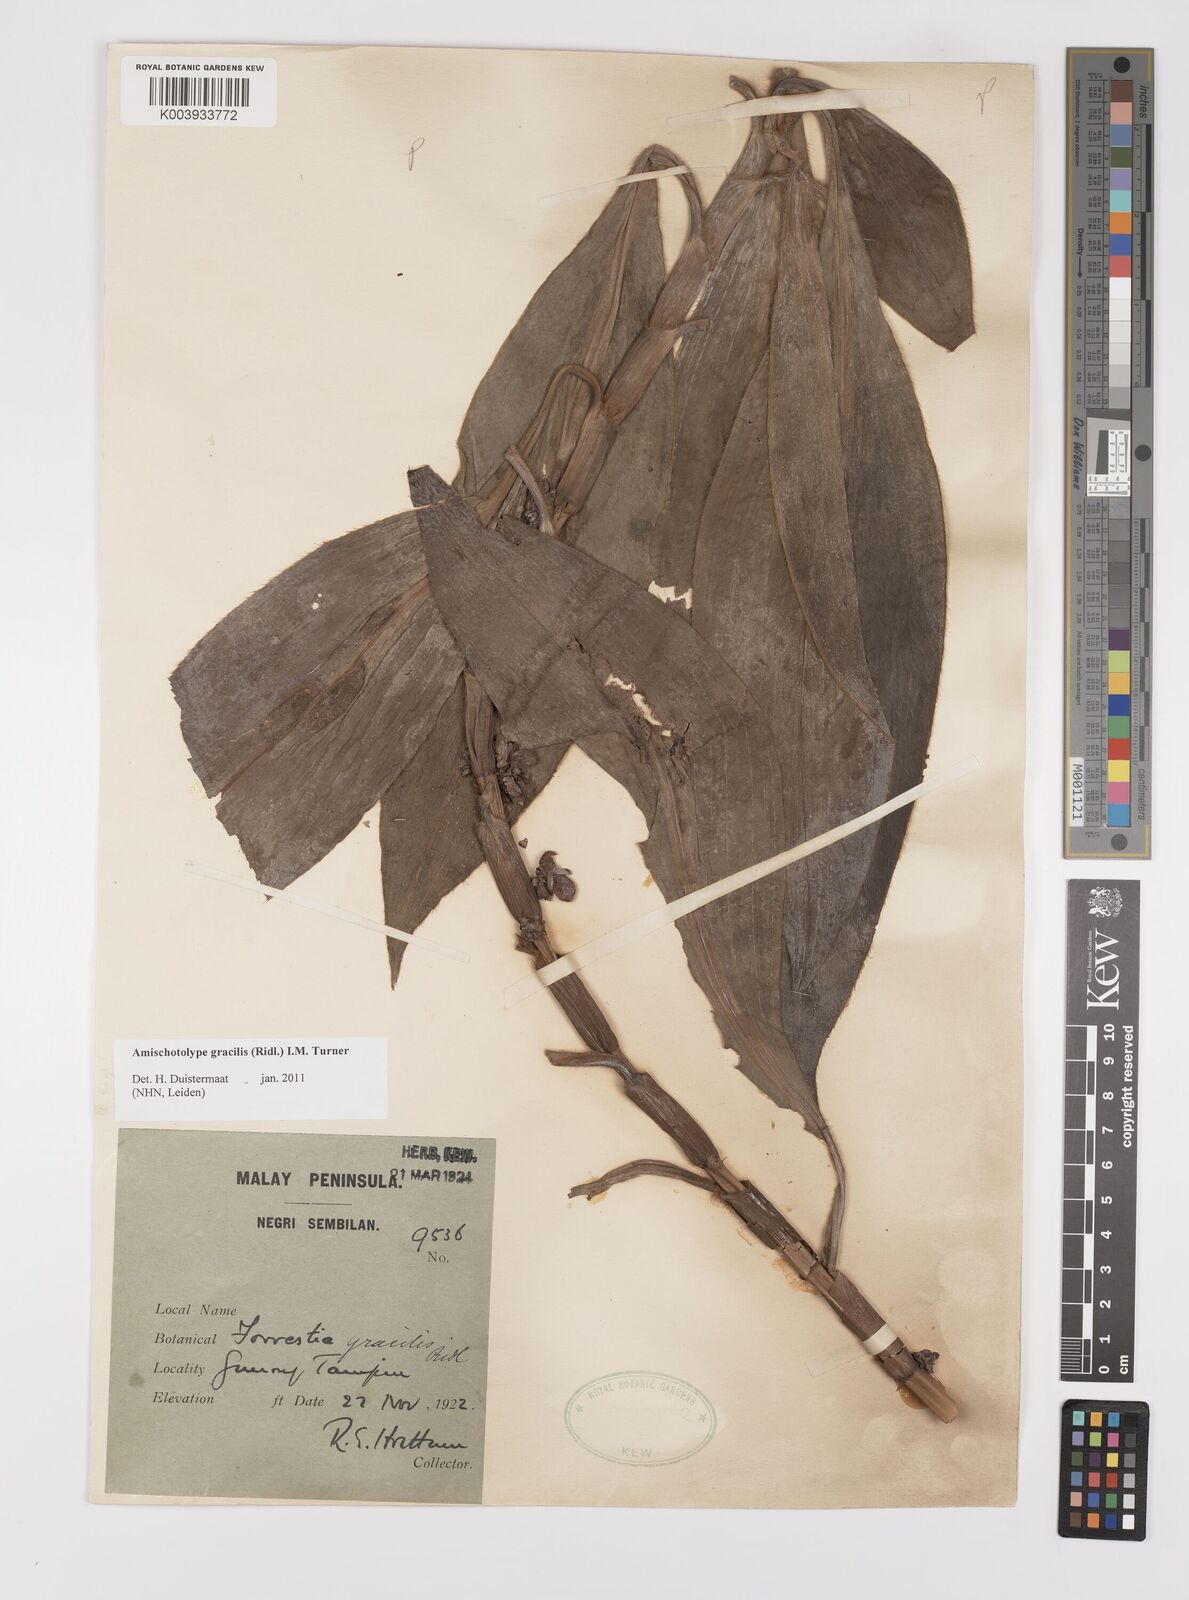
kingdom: Plantae
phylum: Tracheophyta
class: Liliopsida
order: Commelinales
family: Commelinaceae
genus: Amischotolype
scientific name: Amischotolype gracilis
